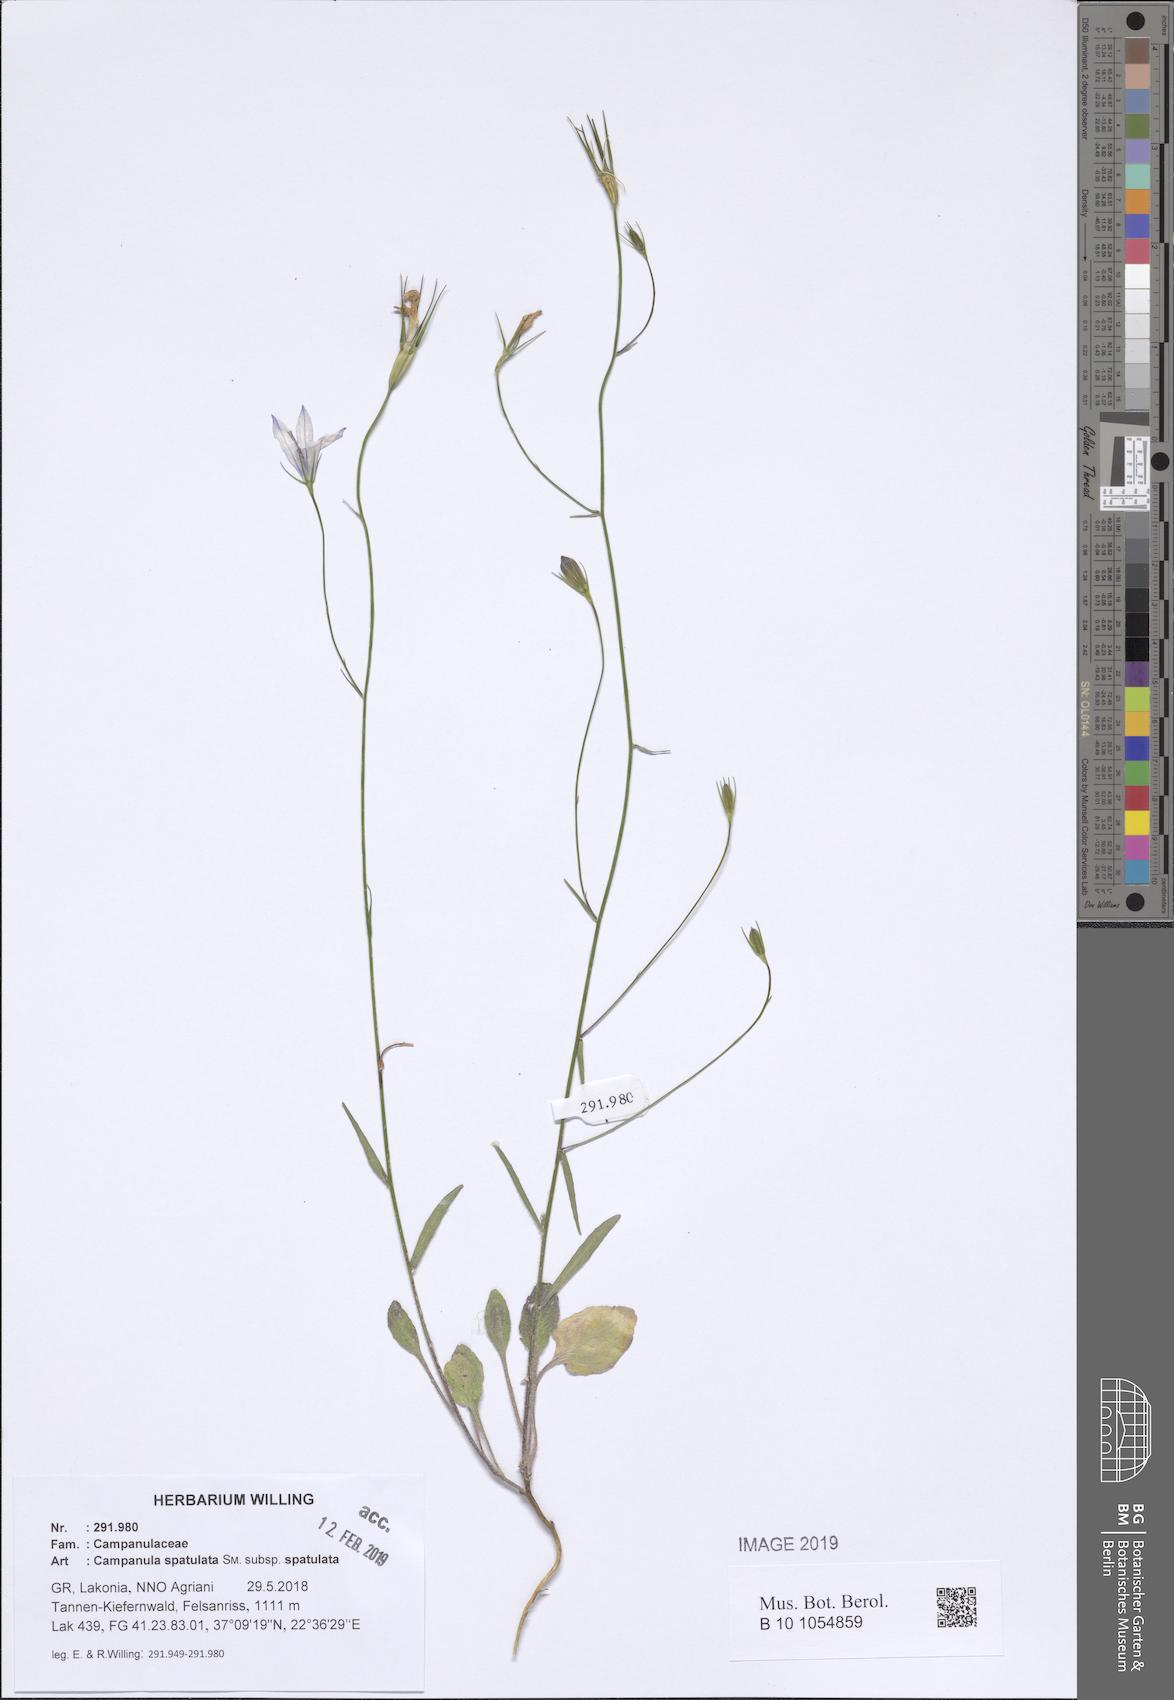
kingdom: Plantae
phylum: Tracheophyta
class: Magnoliopsida
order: Asterales
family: Campanulaceae
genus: Campanula
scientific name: Campanula spatulata
